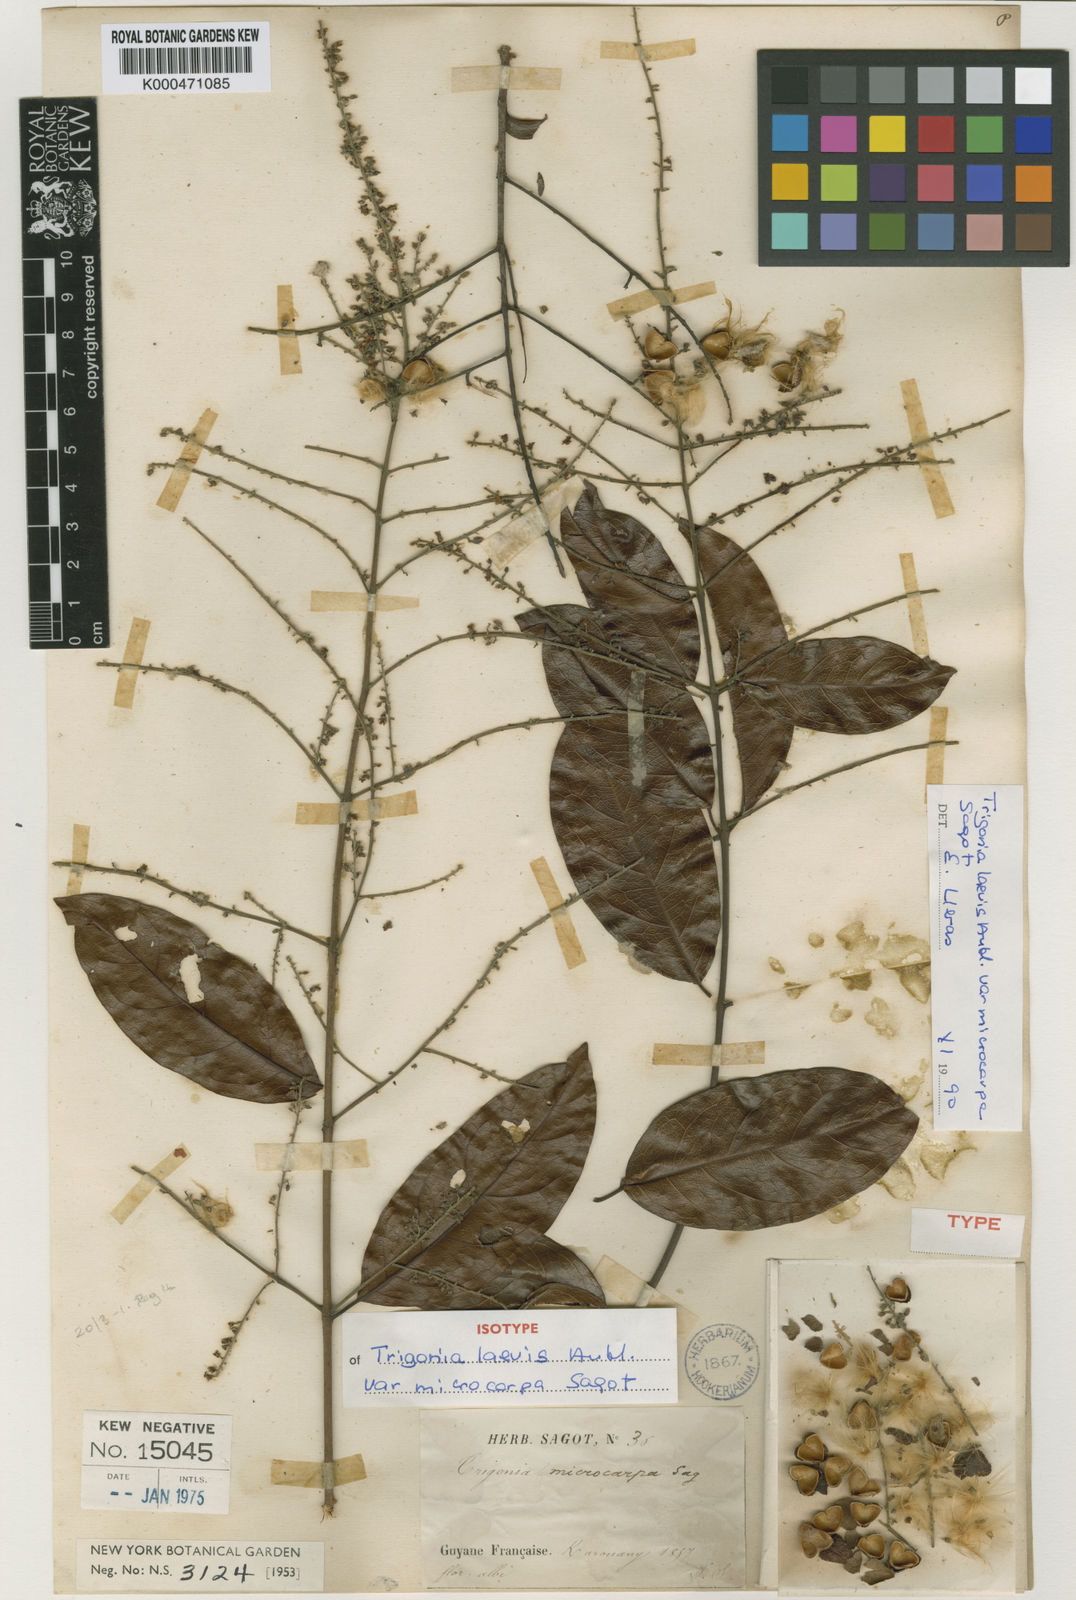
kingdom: Plantae
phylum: Tracheophyta
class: Magnoliopsida
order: Malpighiales
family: Trigoniaceae
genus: Trigonia
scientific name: Trigonia microcarpa
